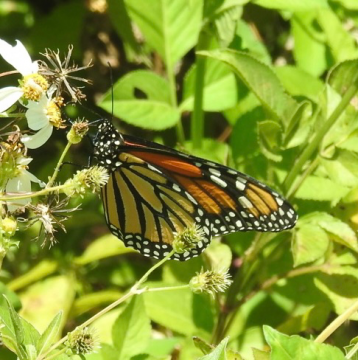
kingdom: Animalia
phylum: Arthropoda
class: Insecta
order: Lepidoptera
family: Nymphalidae
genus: Danaus
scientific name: Danaus plexippus
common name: Monarch
